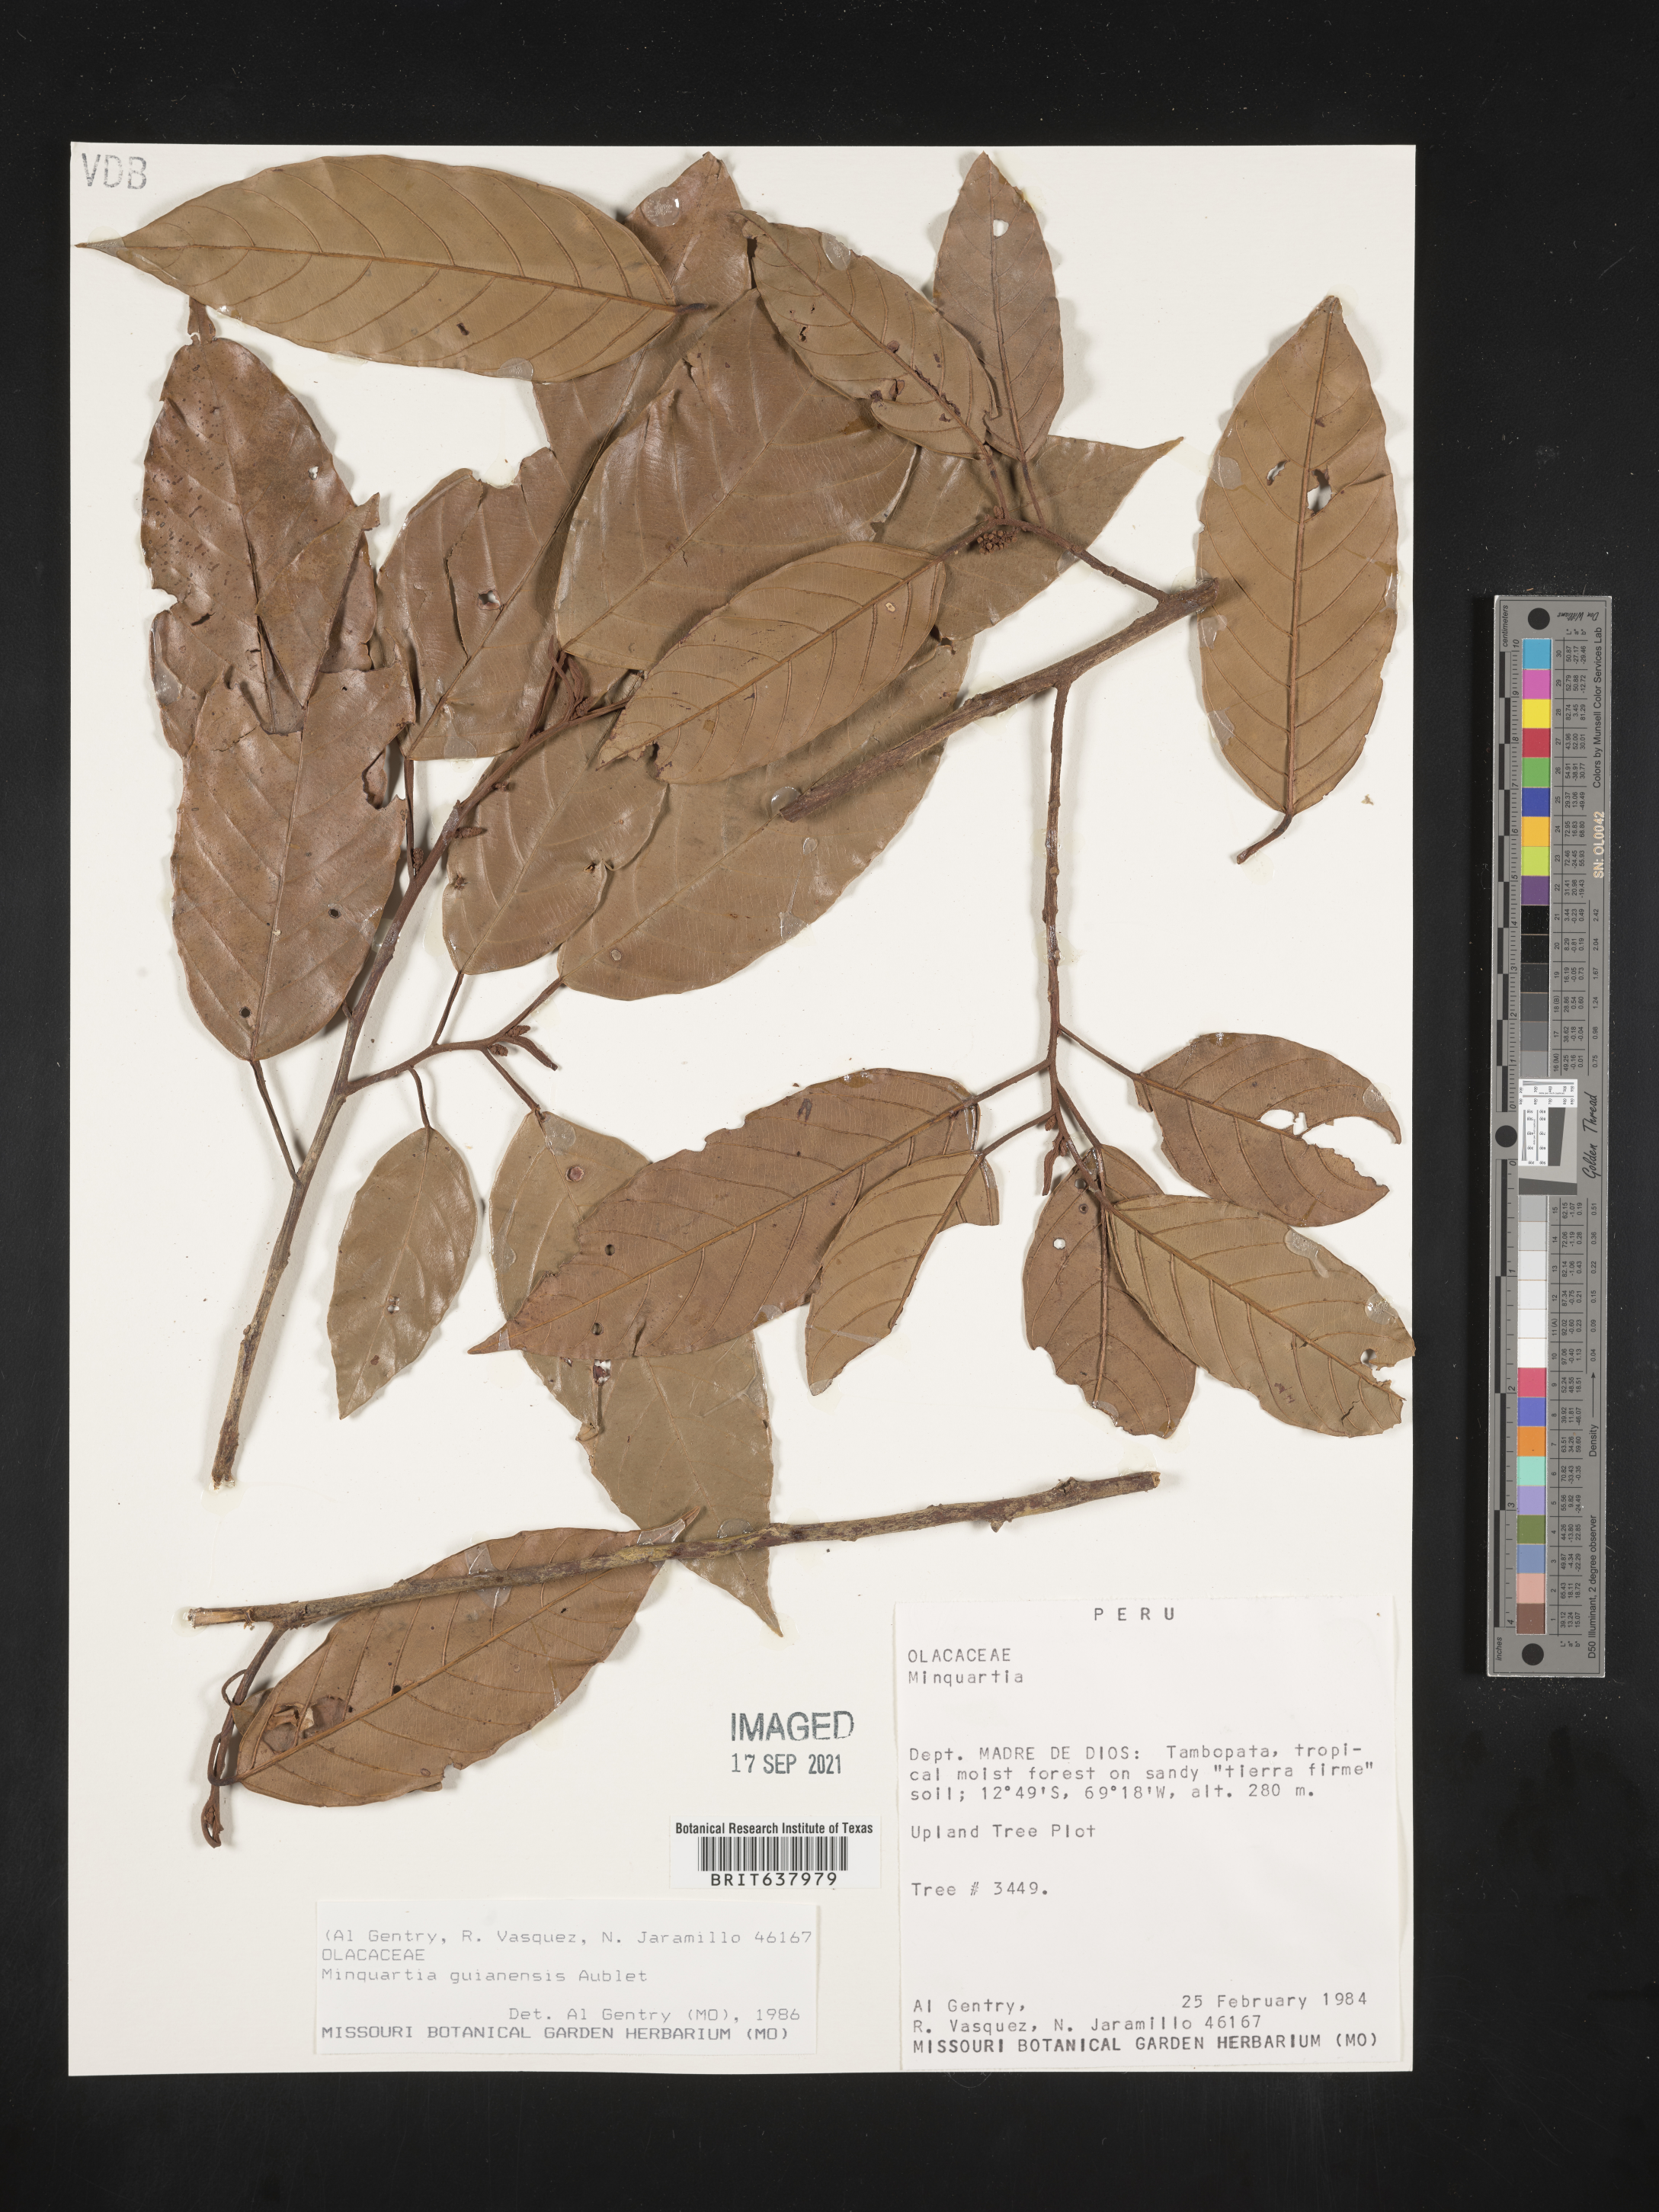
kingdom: Plantae
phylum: Tracheophyta
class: Magnoliopsida
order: Santalales
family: Coulaceae
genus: Minquartia
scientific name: Minquartia guianensis
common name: Black manwood
